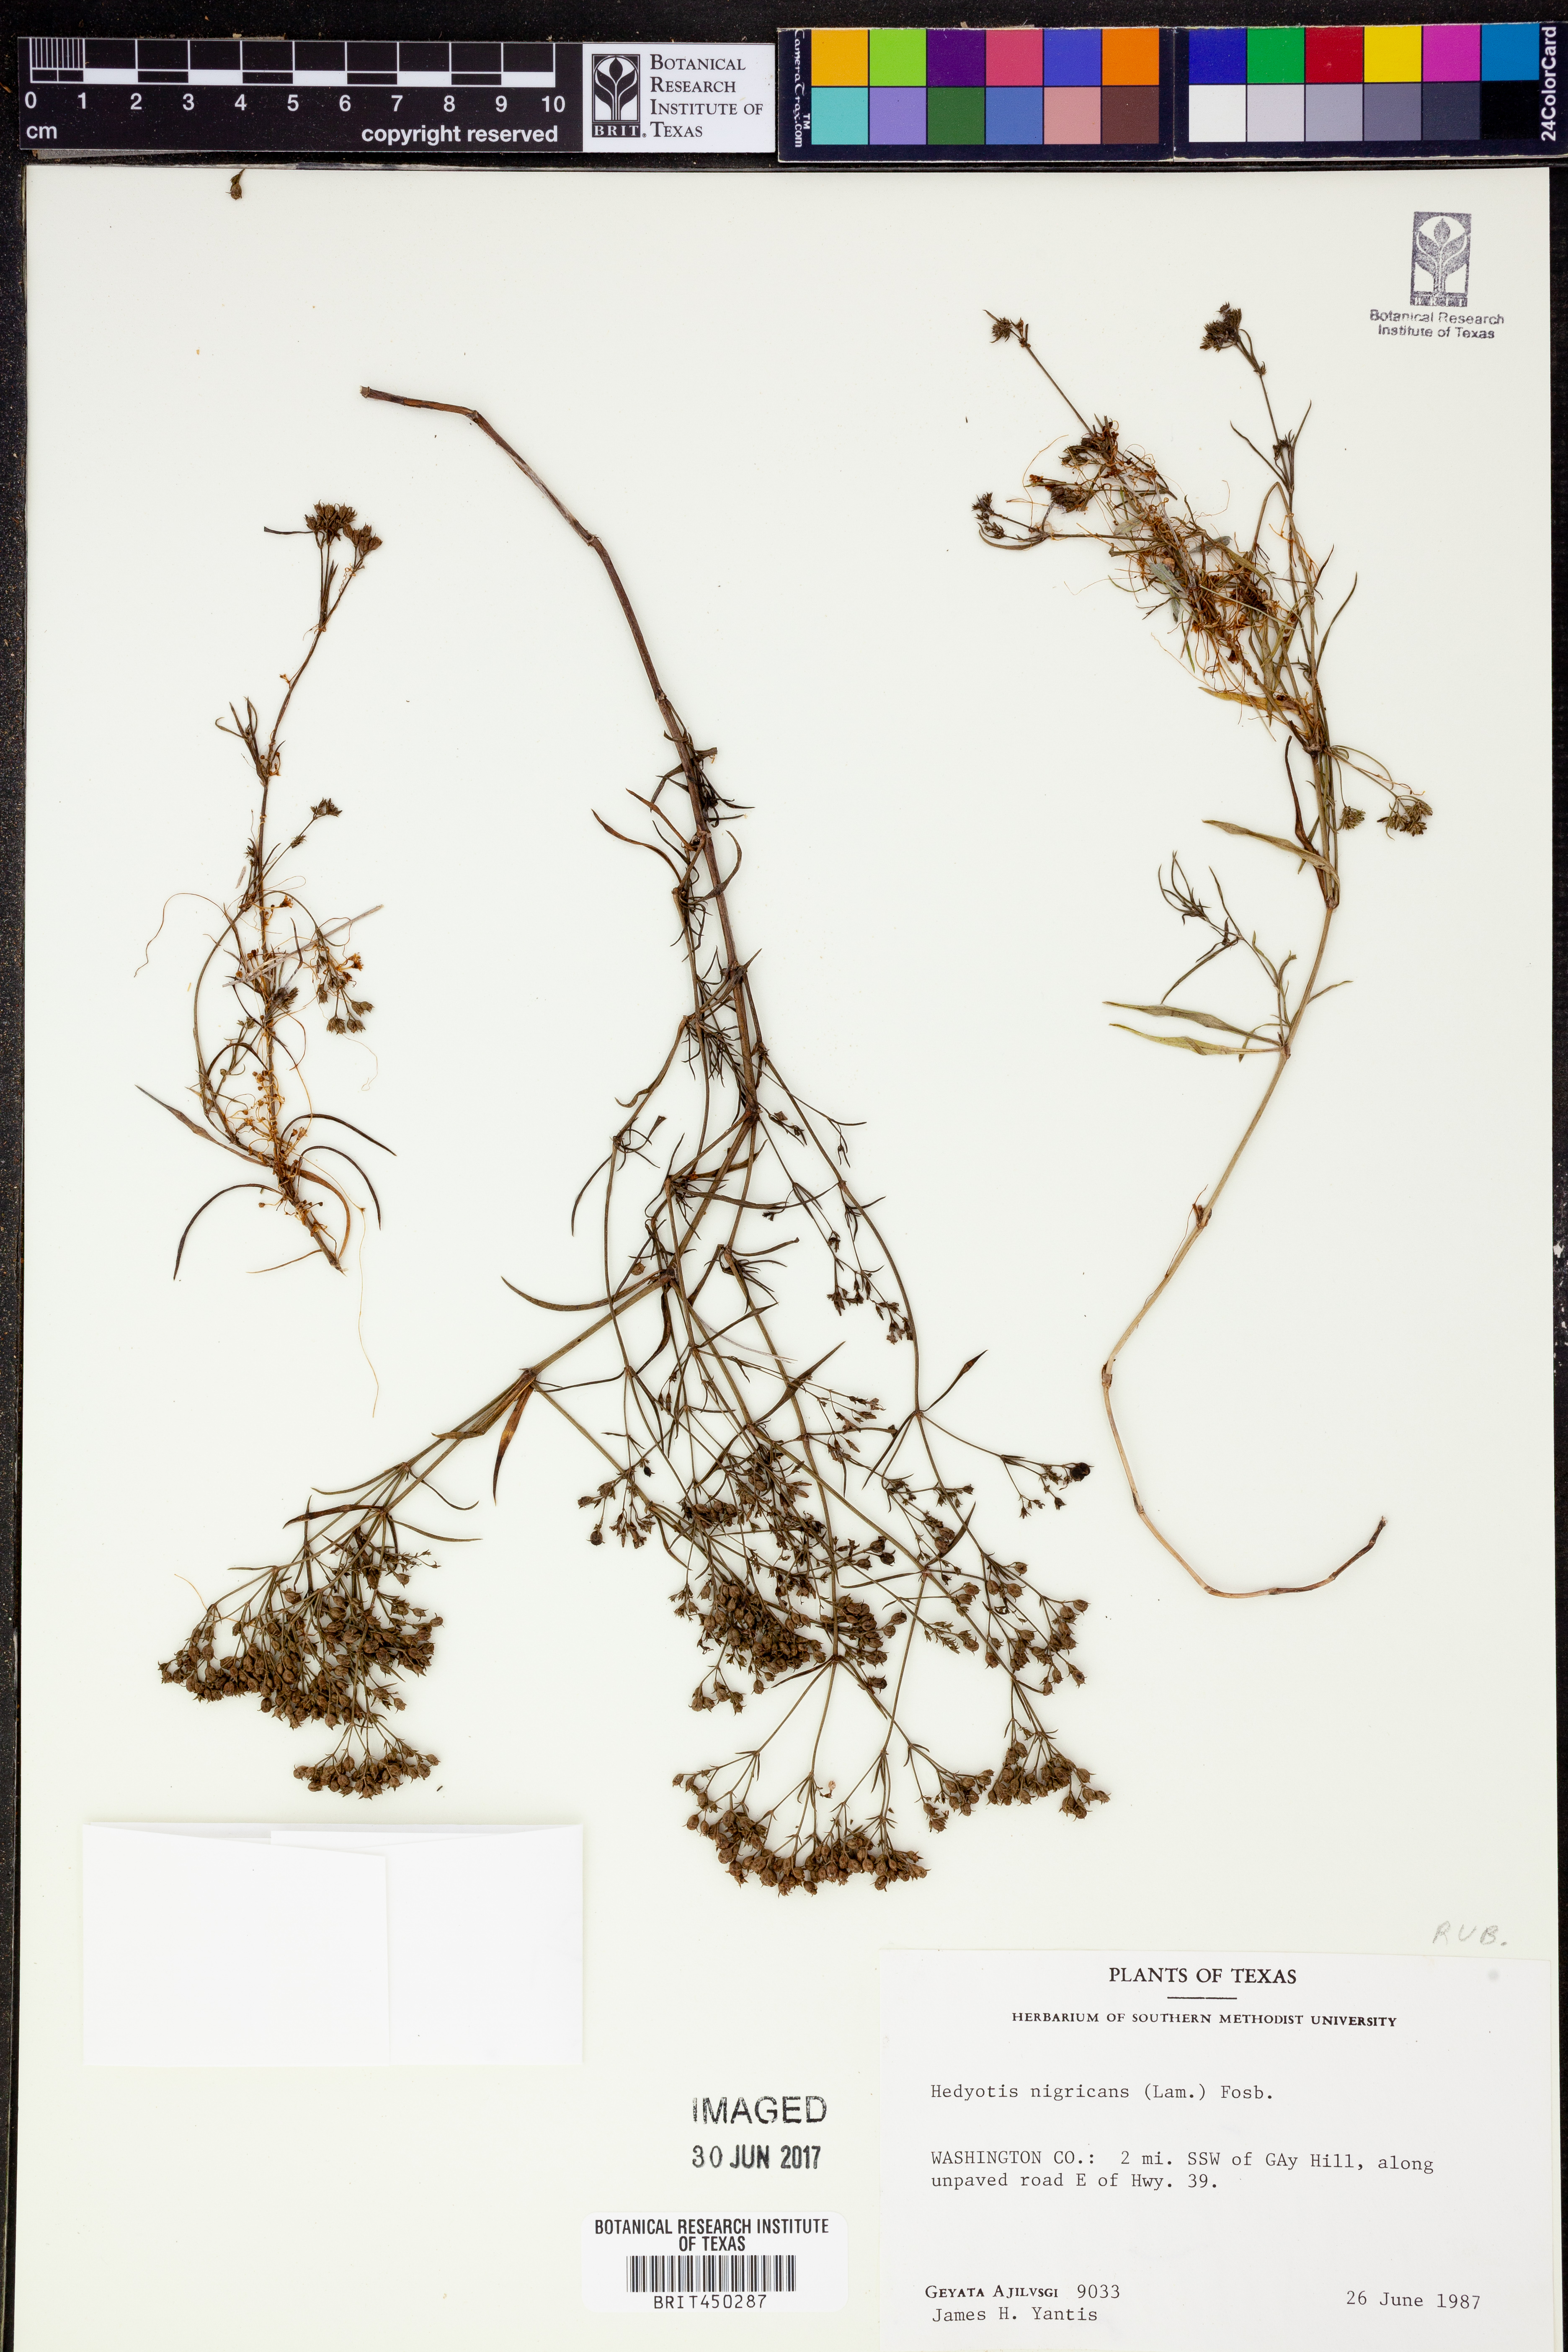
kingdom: Plantae
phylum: Tracheophyta
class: Magnoliopsida
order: Gentianales
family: Rubiaceae
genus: Stenaria
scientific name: Stenaria nigricans
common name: Diamondflowers
